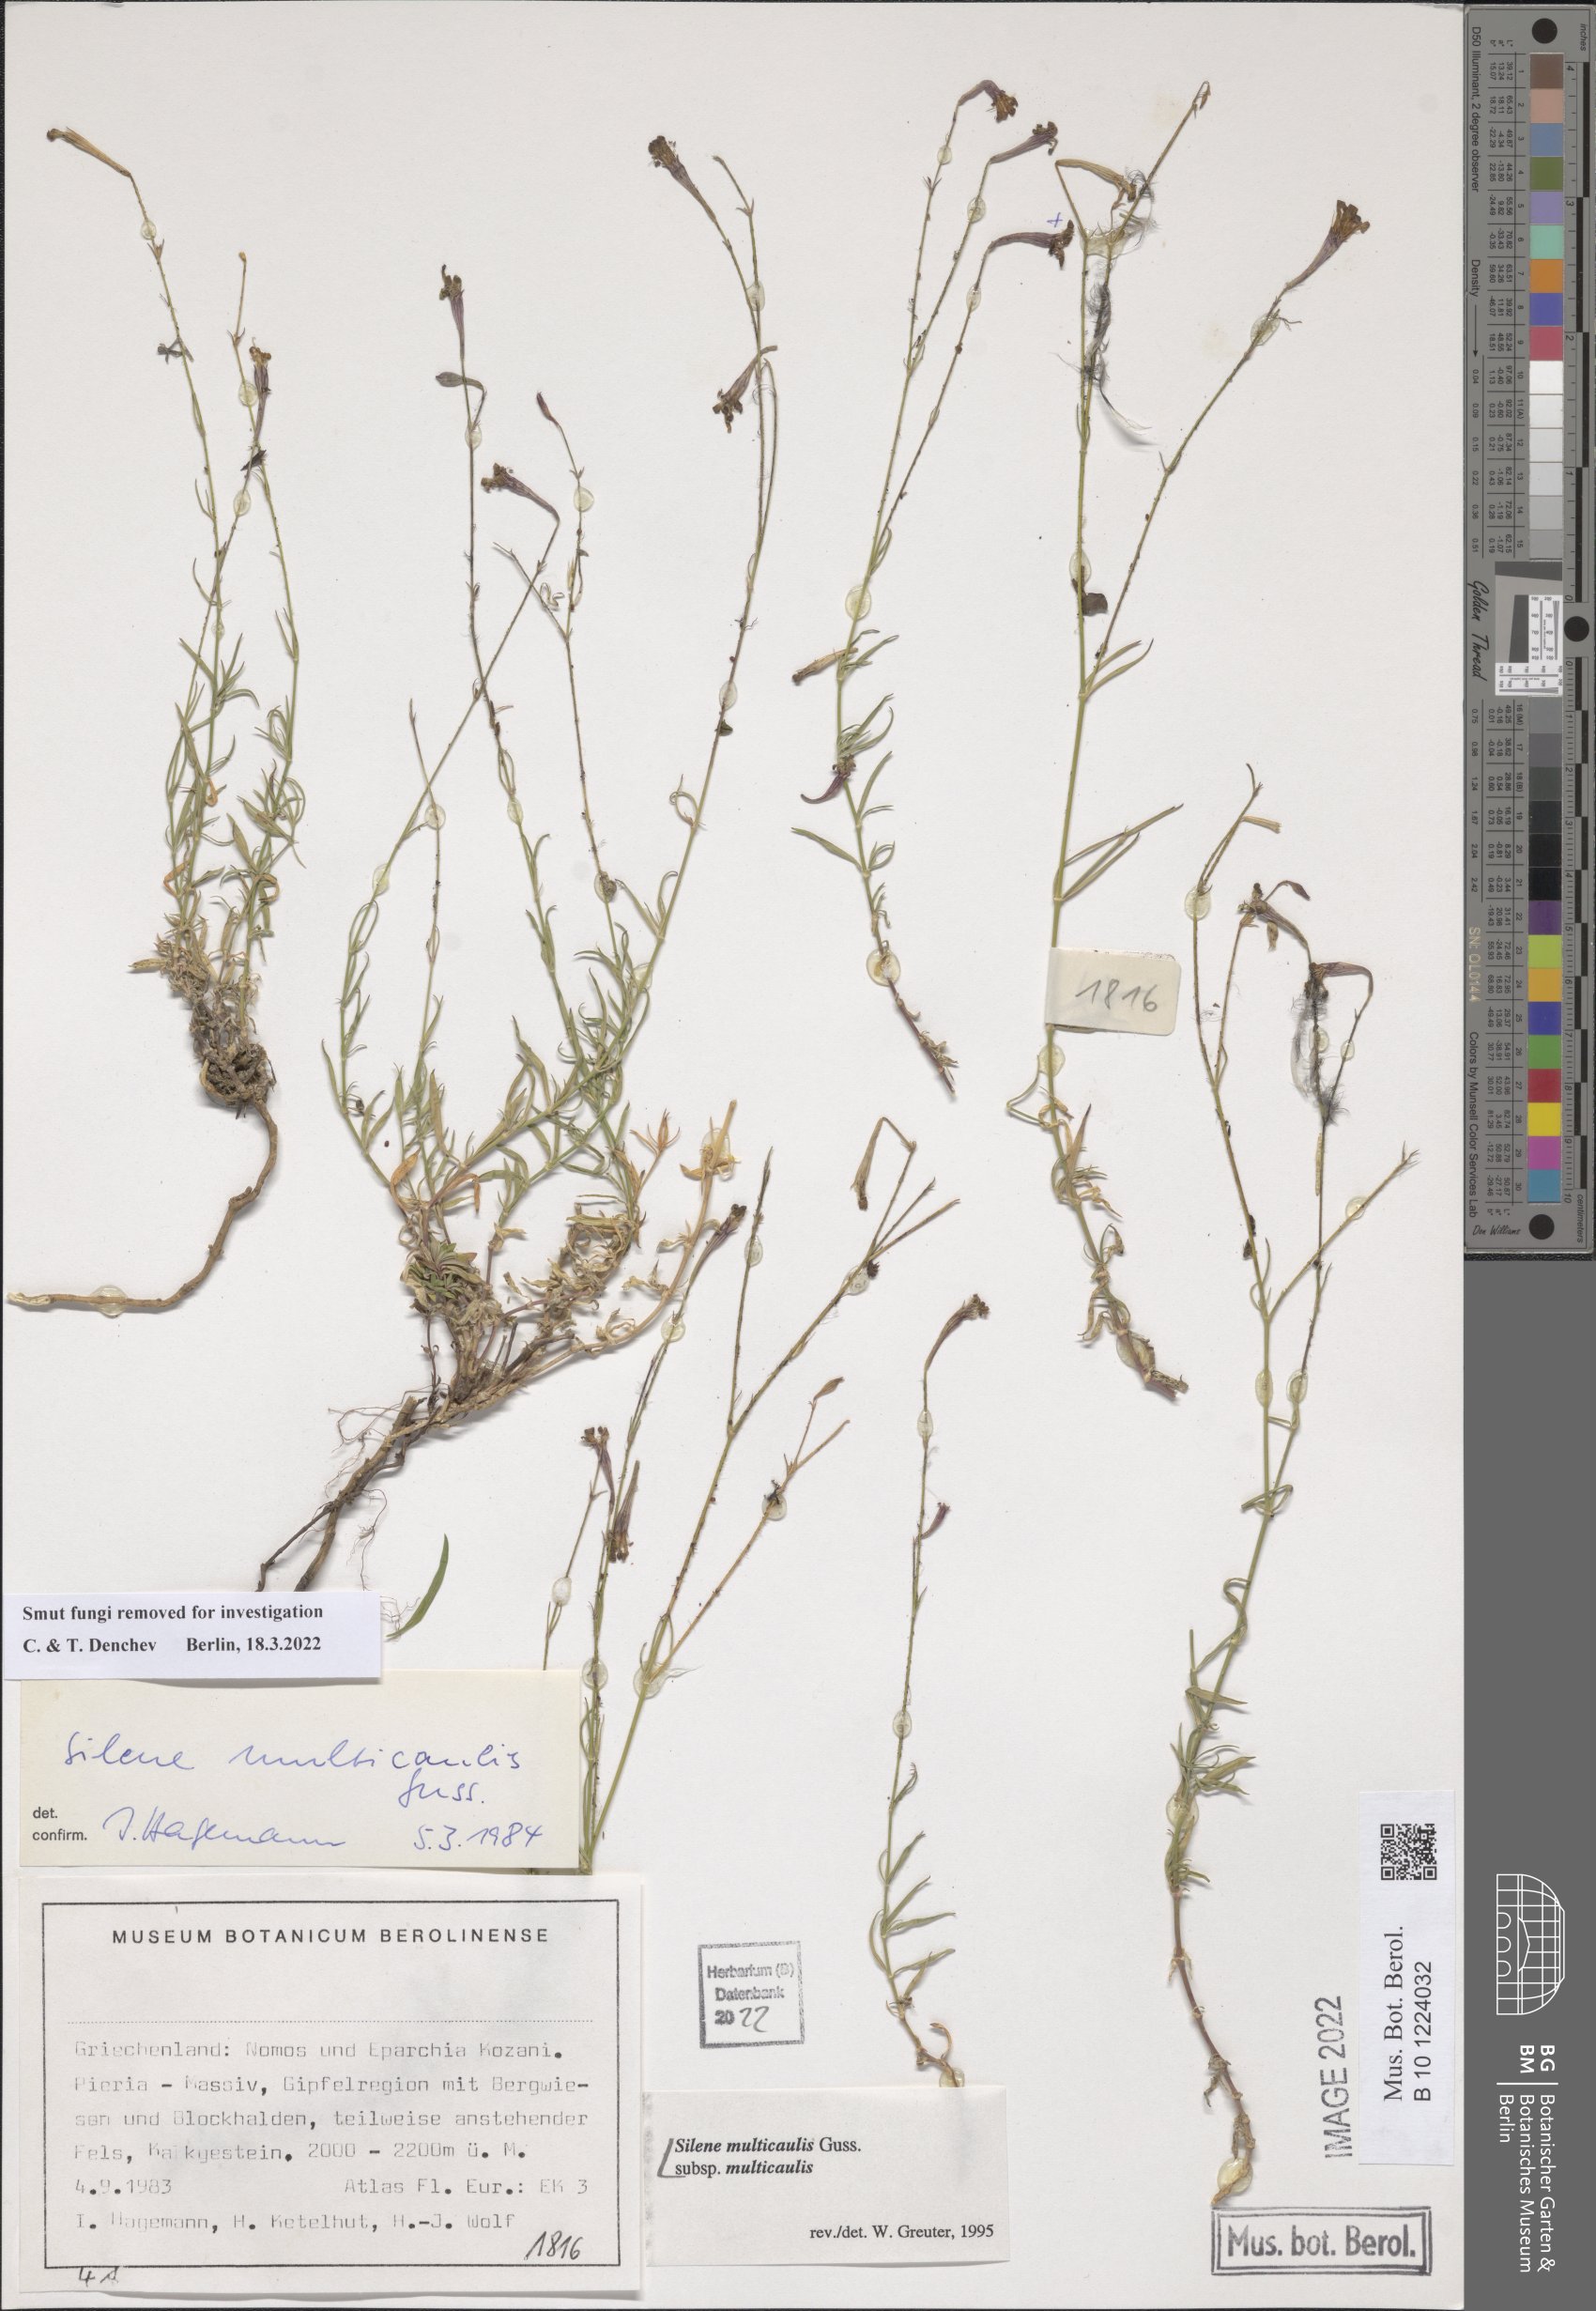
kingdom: Plantae
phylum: Tracheophyta
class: Magnoliopsida
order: Caryophyllales
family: Caryophyllaceae
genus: Silene
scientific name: Silene multicaulis
